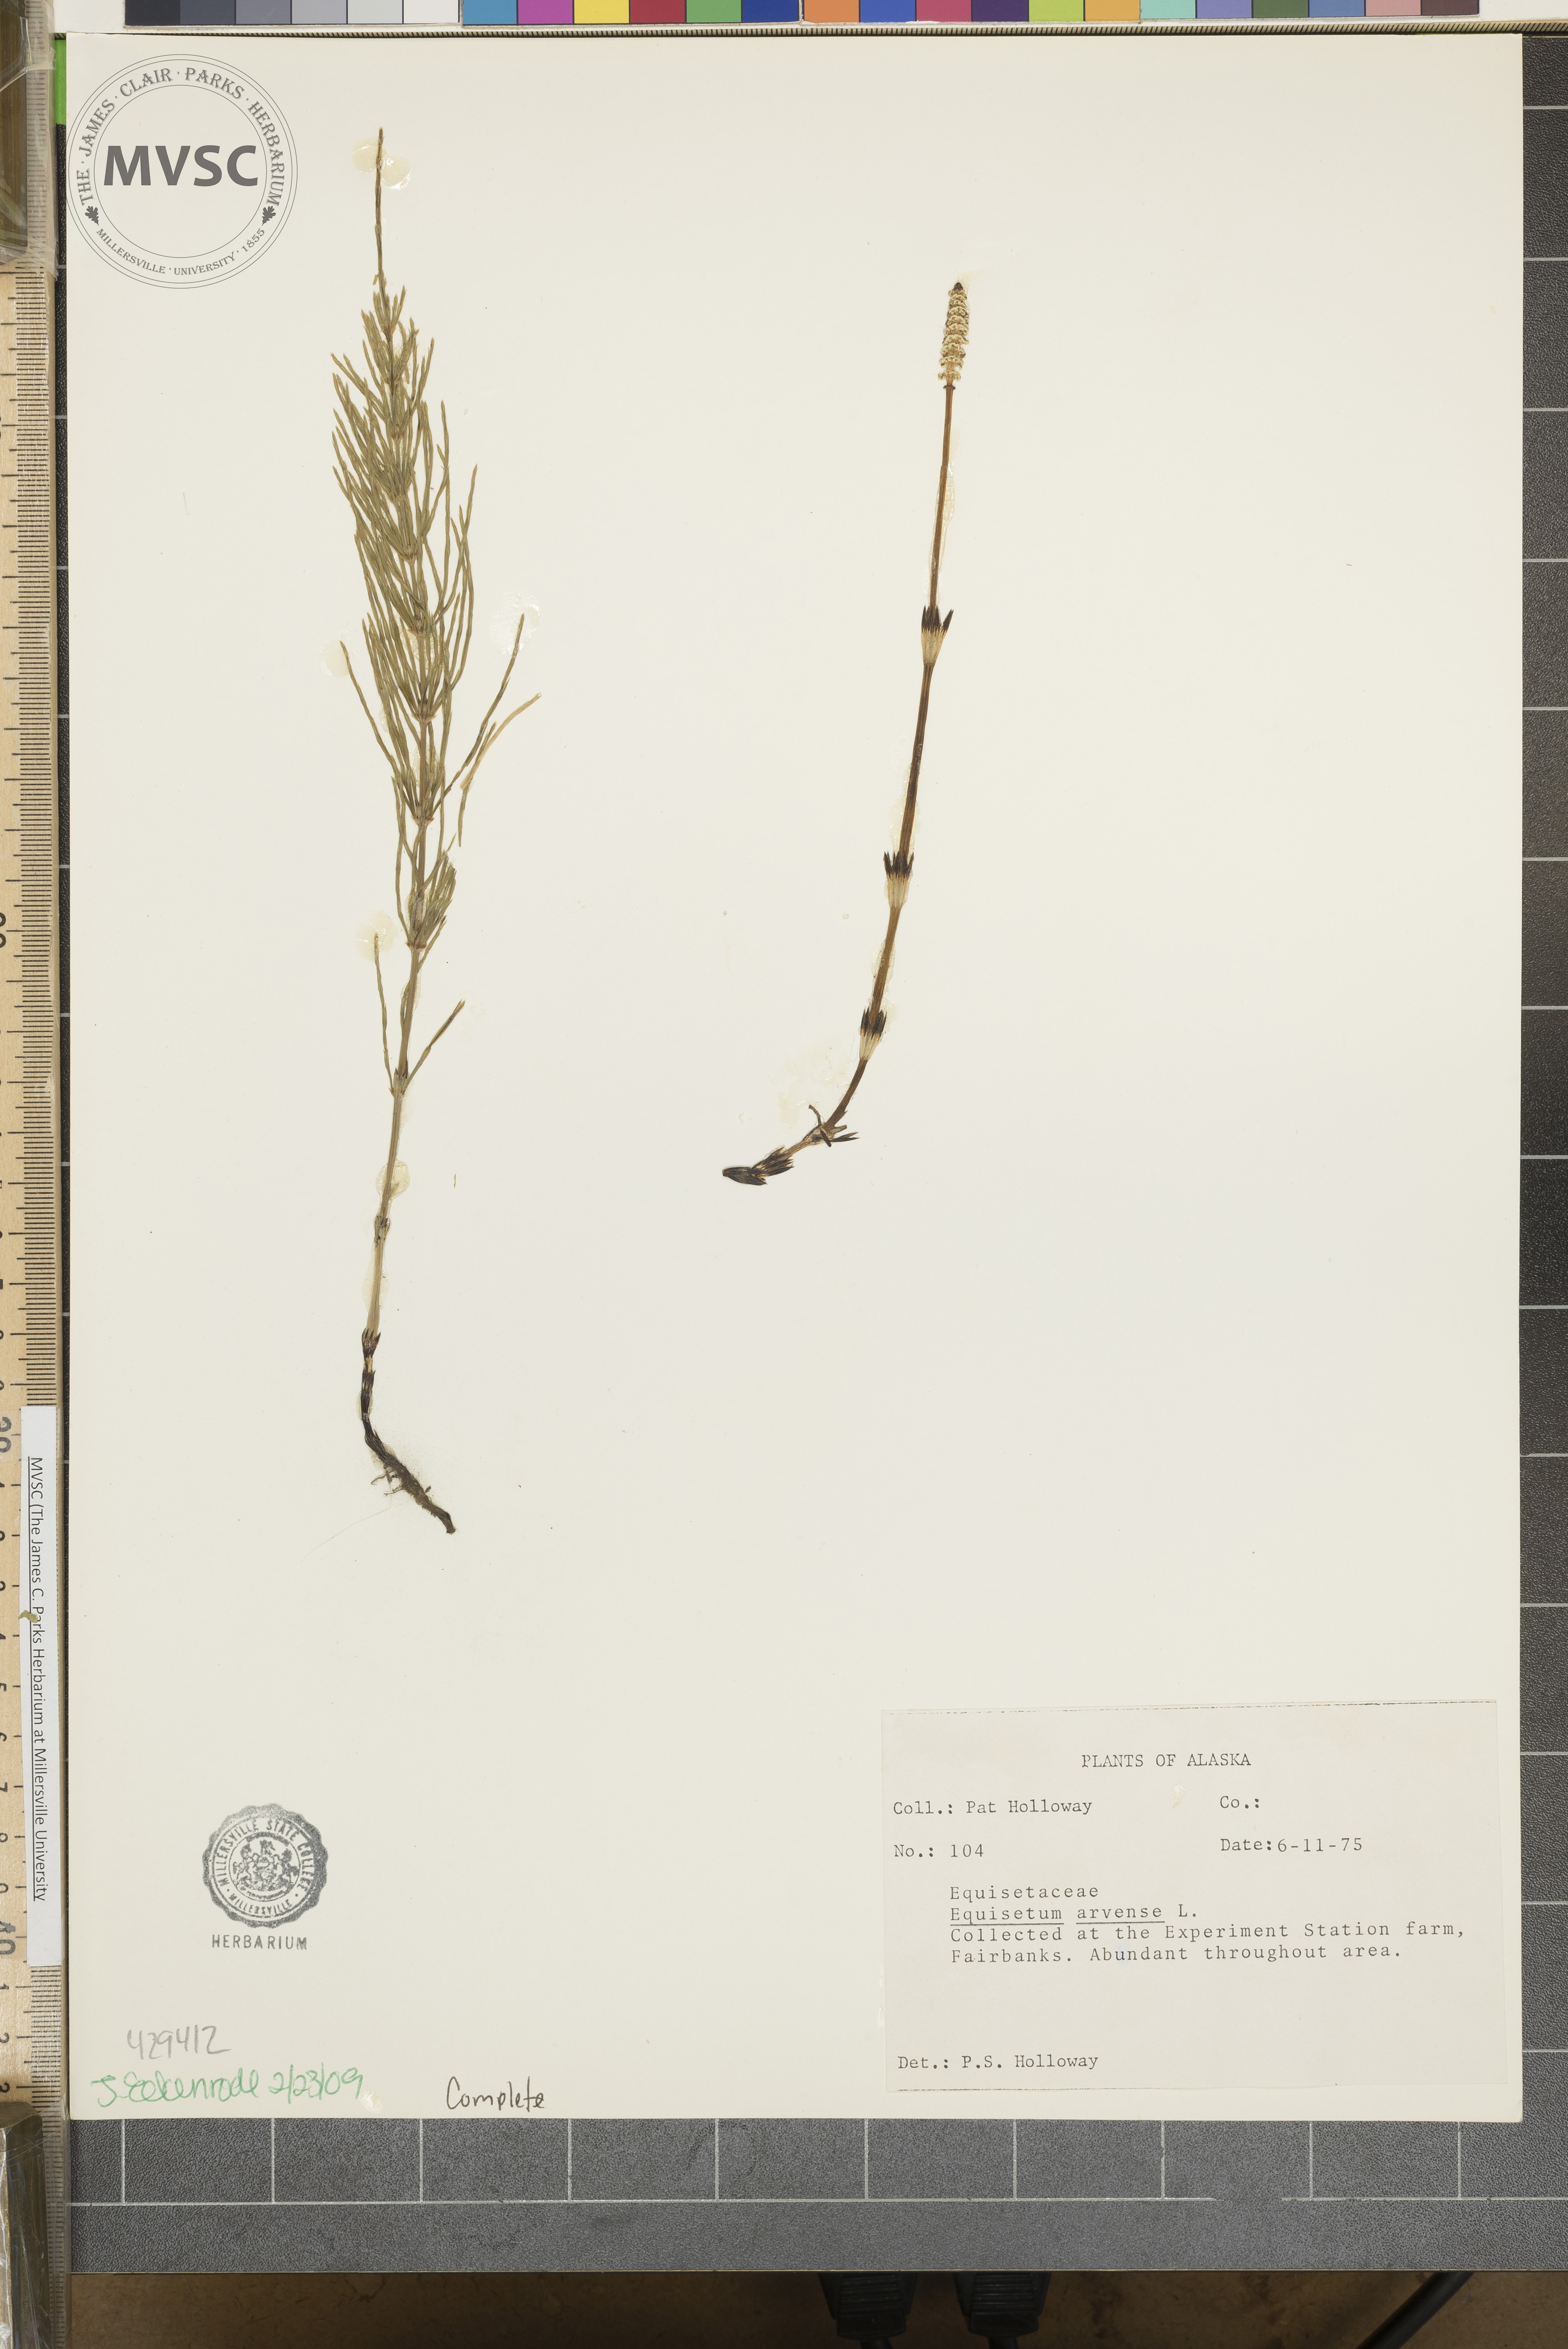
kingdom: Plantae
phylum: Tracheophyta
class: Polypodiopsida
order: Equisetales
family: Equisetaceae
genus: Equisetum
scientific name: Equisetum arvense
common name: Field horsetail
